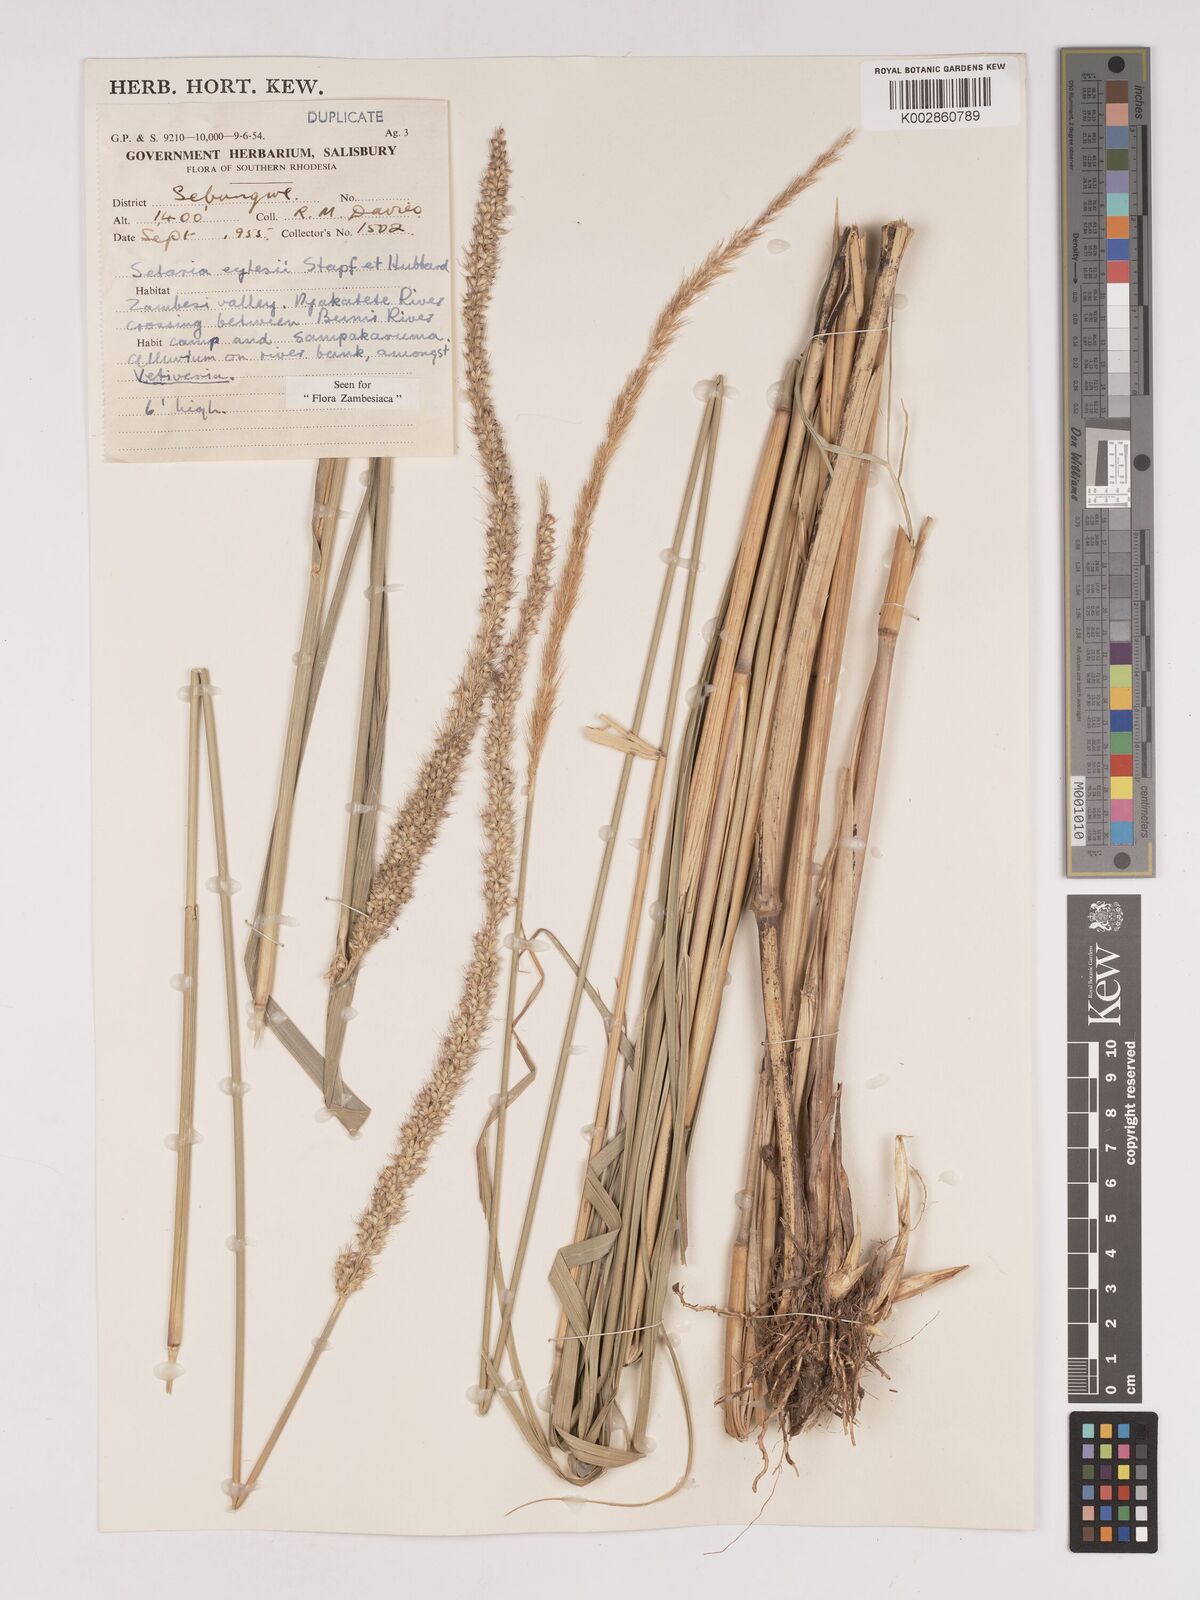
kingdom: Plantae
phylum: Tracheophyta
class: Liliopsida
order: Poales
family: Poaceae
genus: Setaria
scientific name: Setaria incrassata
